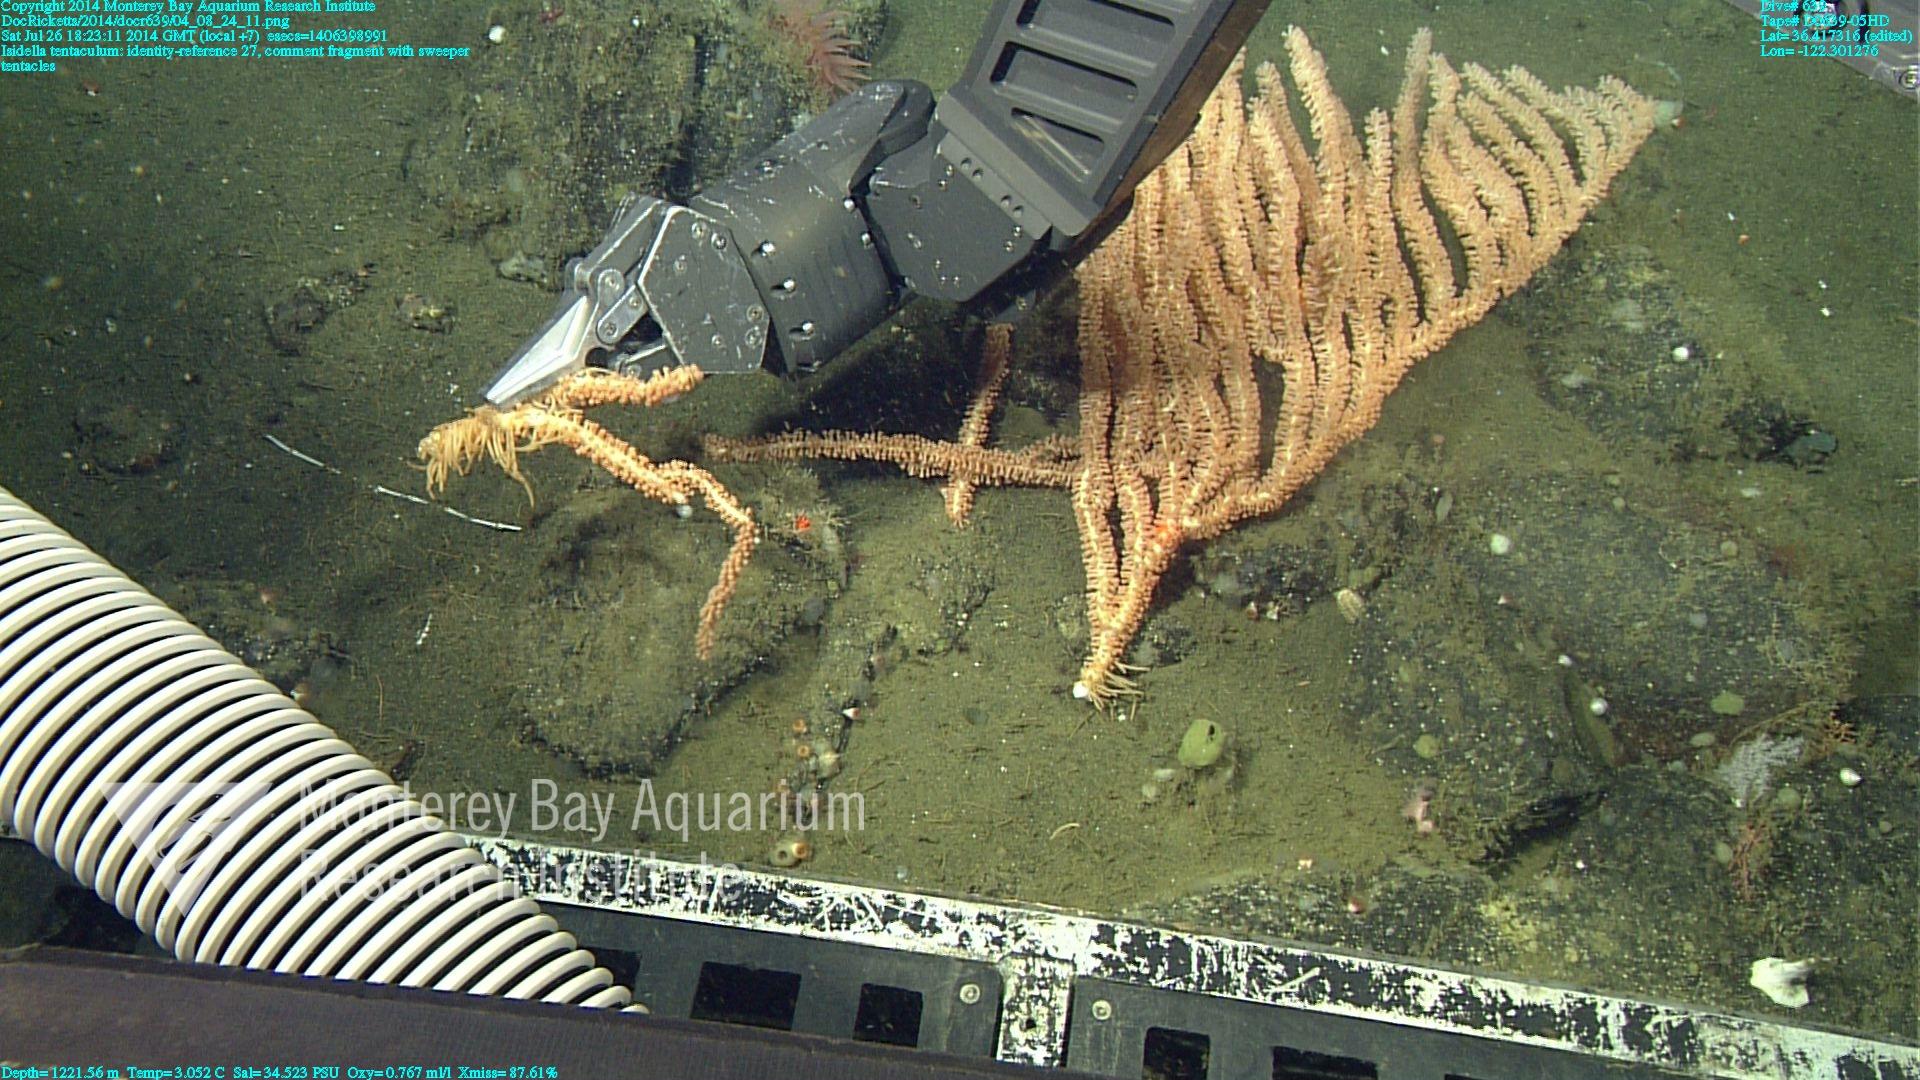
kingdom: Animalia
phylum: Cnidaria
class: Anthozoa
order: Scleralcyonacea
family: Keratoisididae
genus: Isidella
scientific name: Isidella tentaculum
